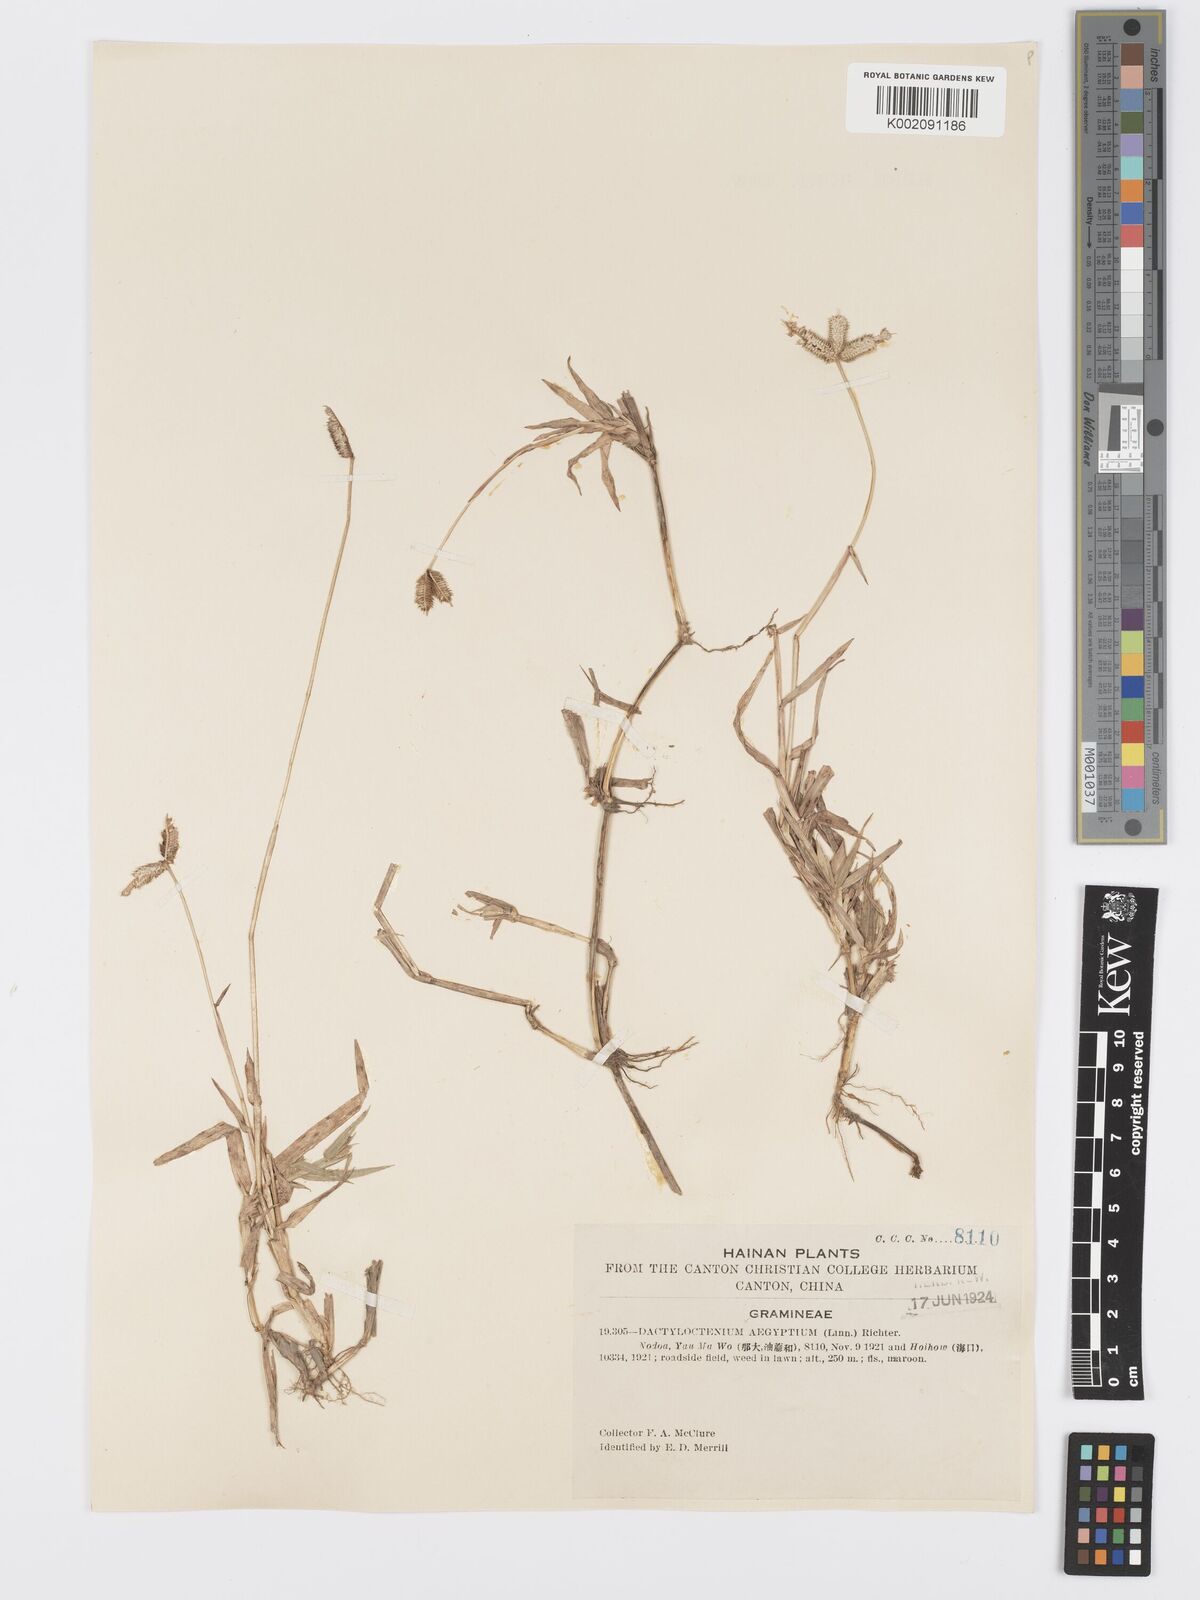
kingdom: Plantae
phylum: Tracheophyta
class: Liliopsida
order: Poales
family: Poaceae
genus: Dactyloctenium
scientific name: Dactyloctenium aegyptium
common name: Egyptian grass
